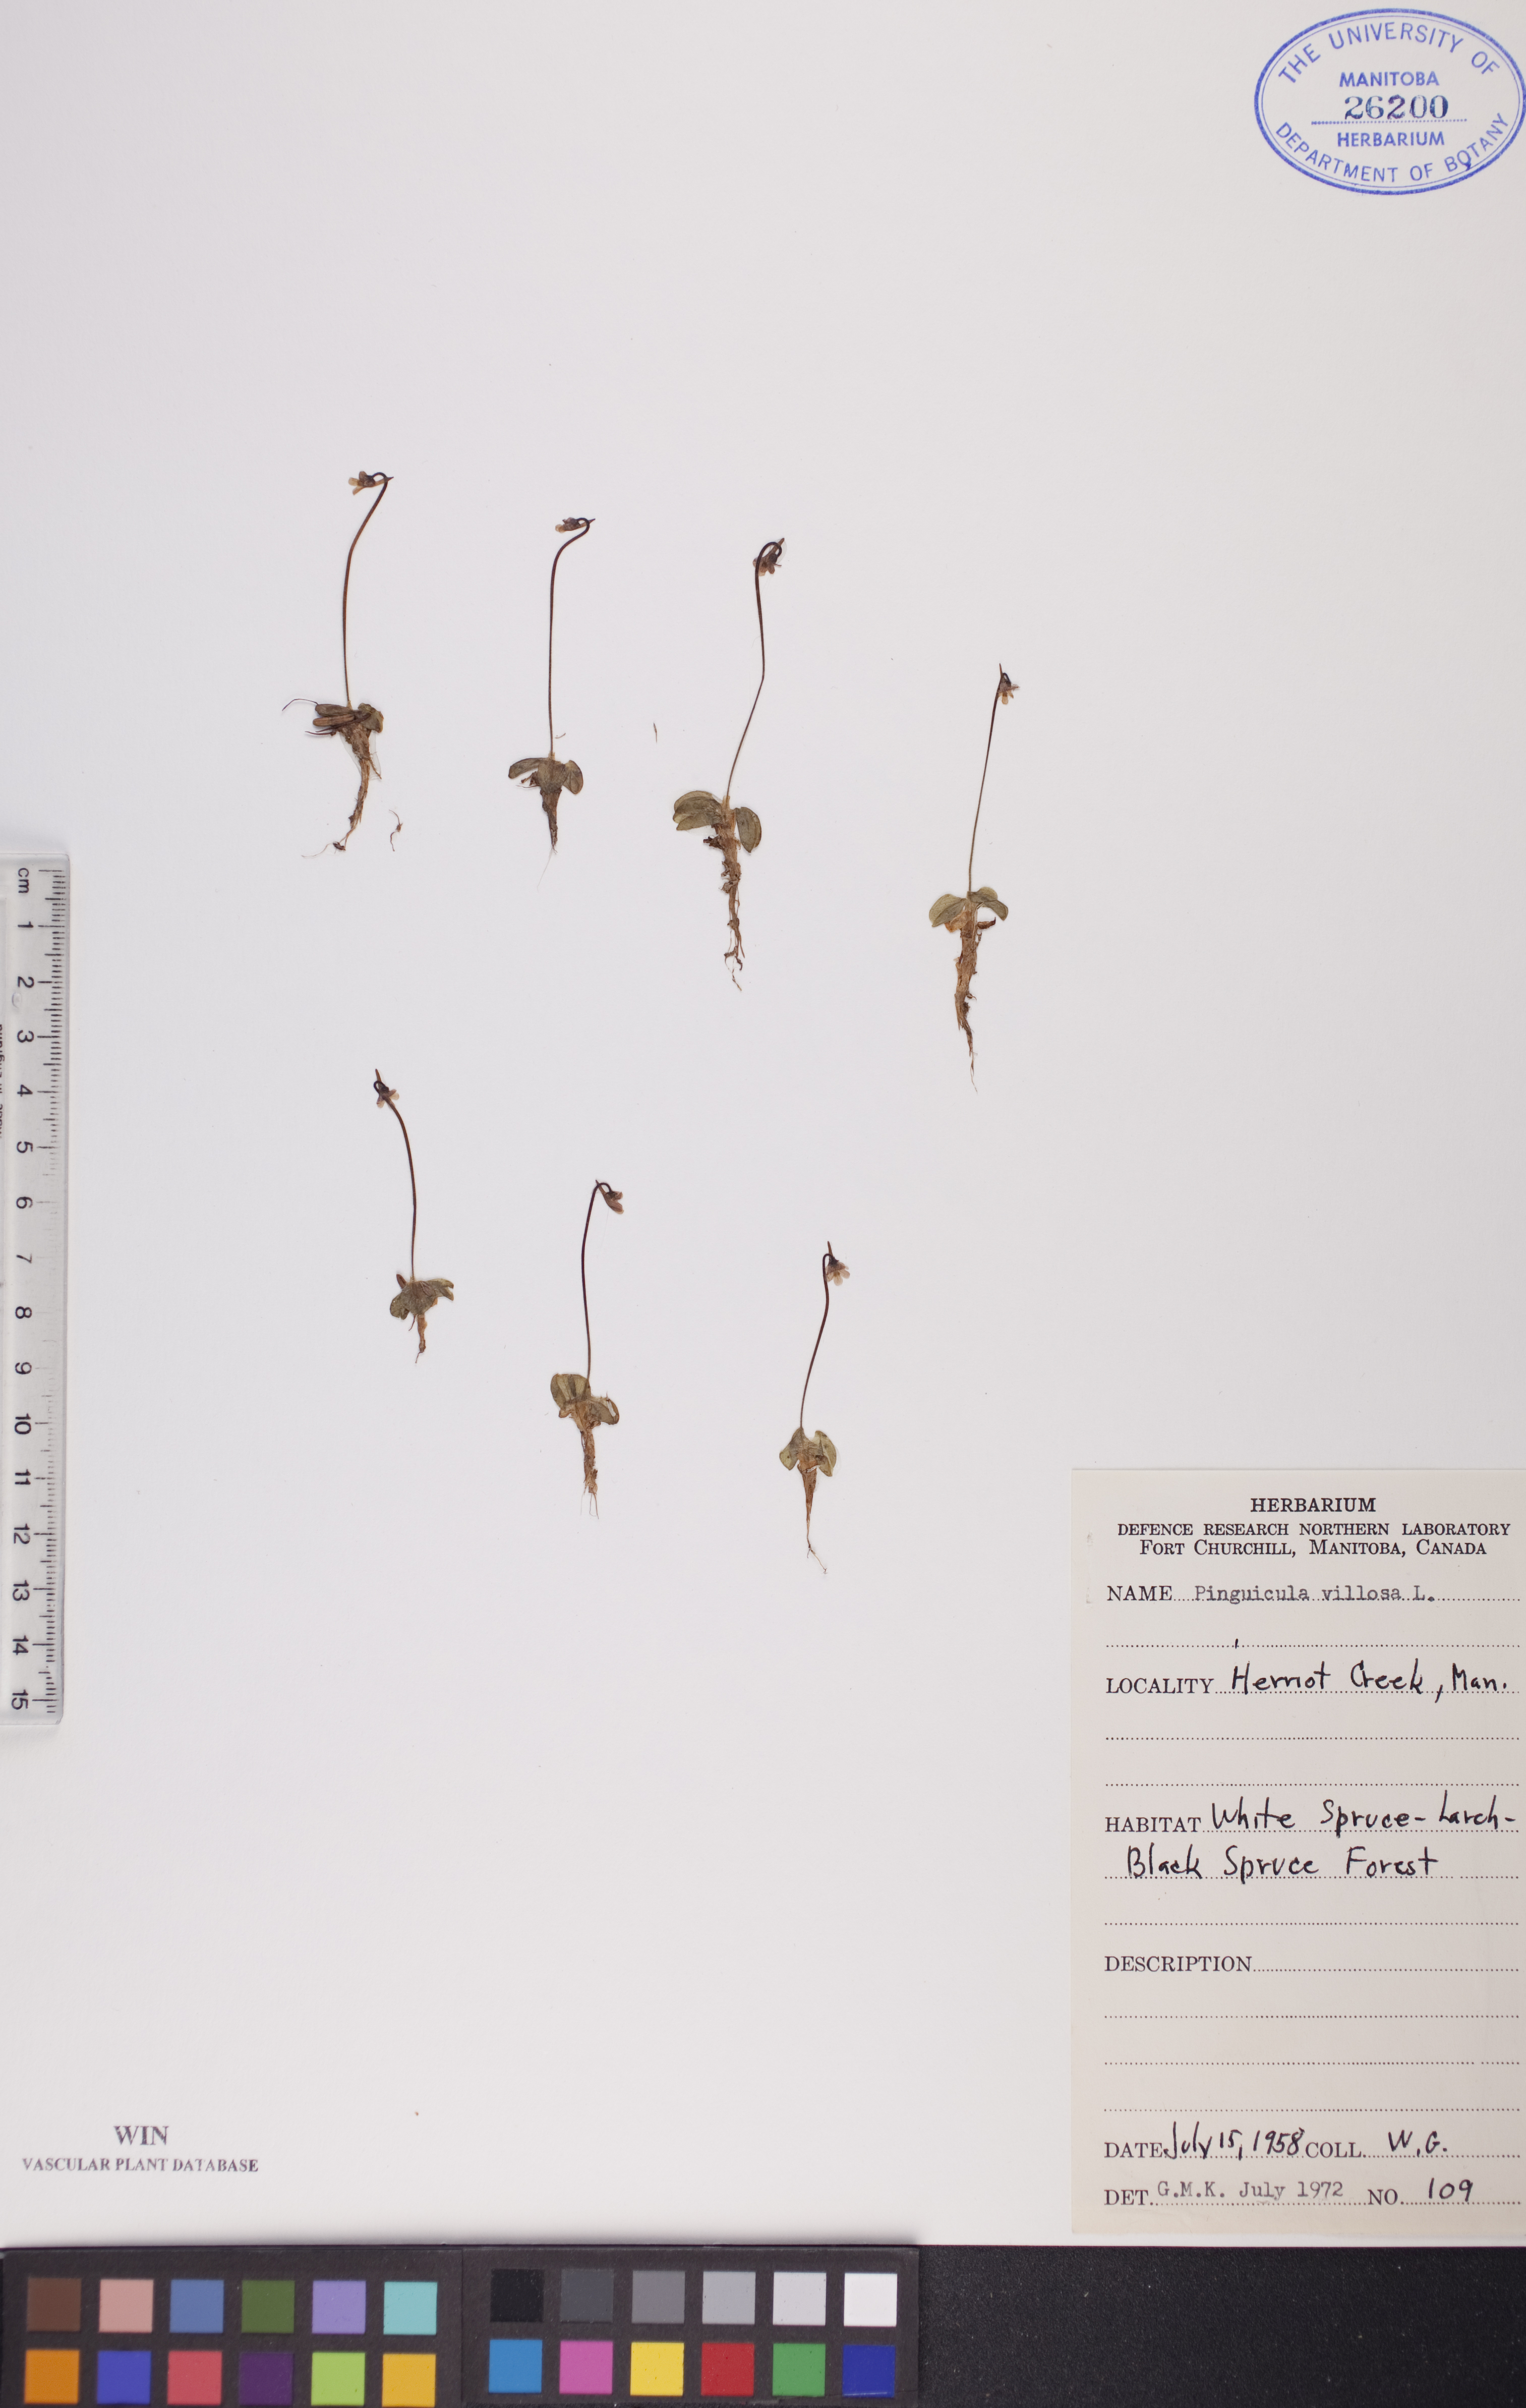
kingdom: Plantae
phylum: Tracheophyta
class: Magnoliopsida
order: Lamiales
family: Lentibulariaceae
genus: Pinguicula
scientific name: Pinguicula villosa
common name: Hairy butterwort
